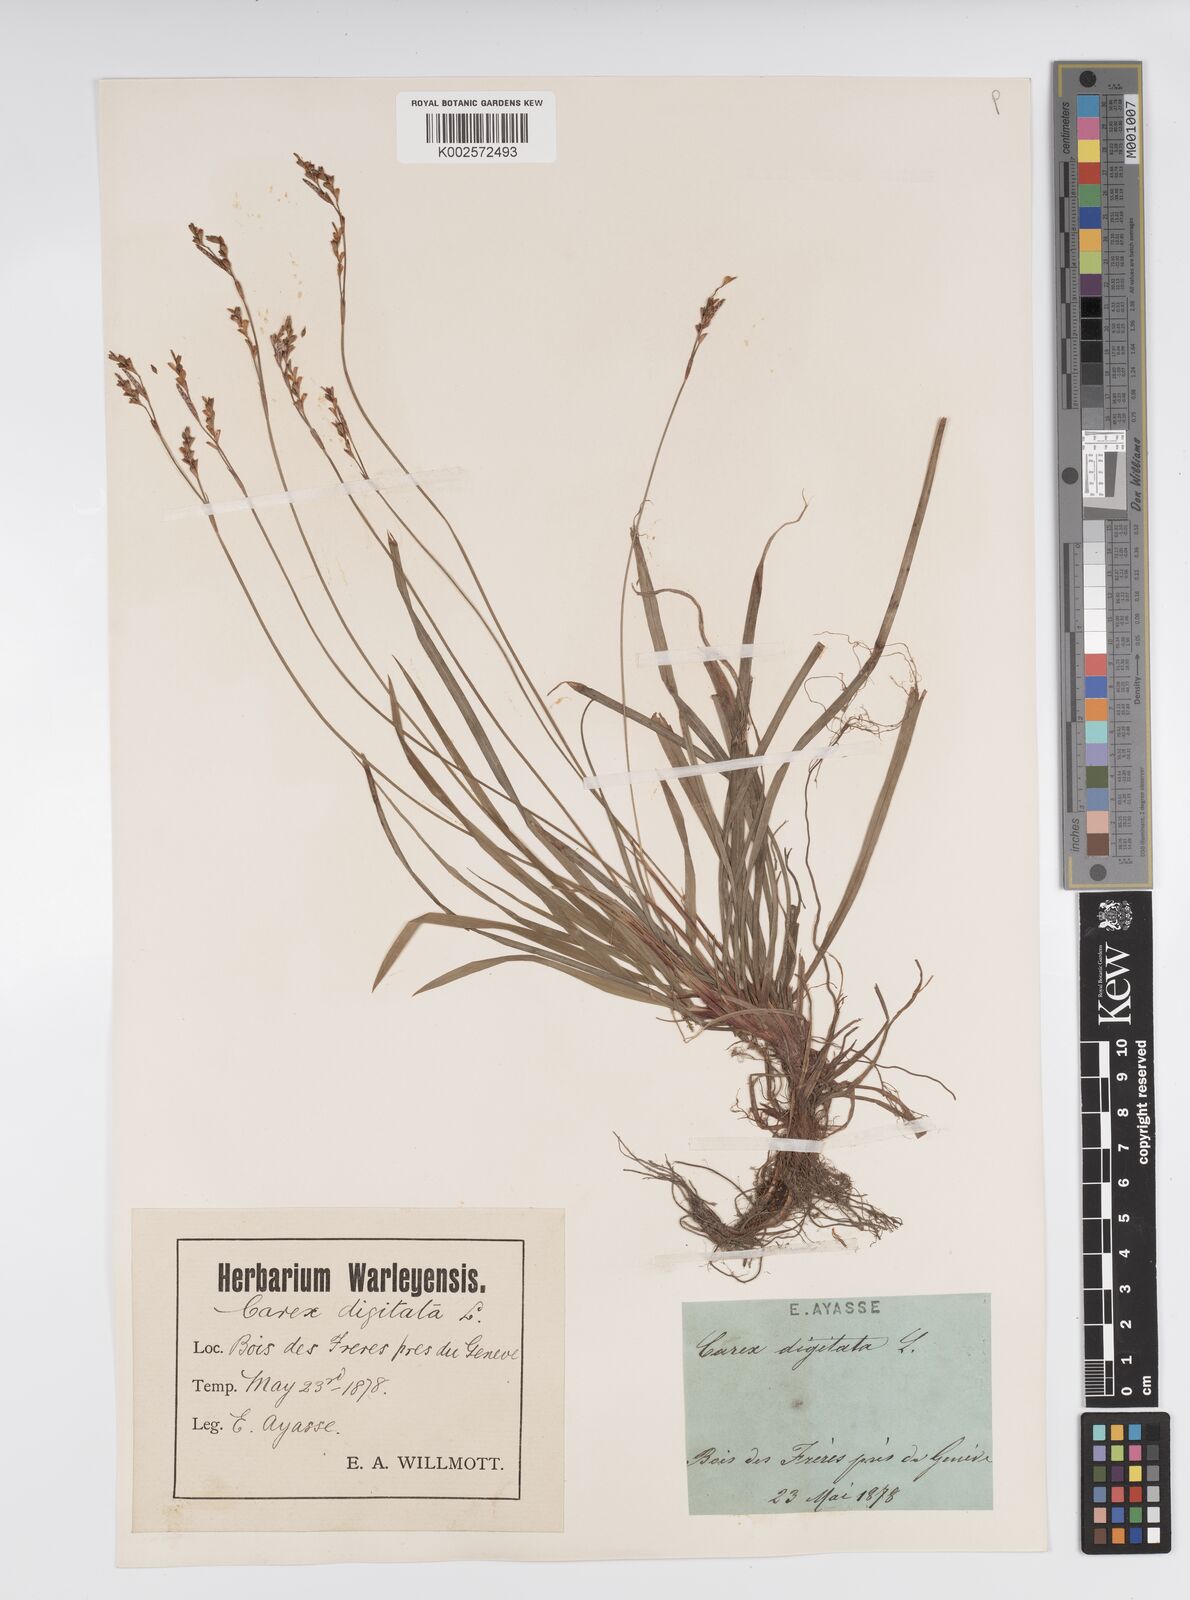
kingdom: Plantae
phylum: Tracheophyta
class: Liliopsida
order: Poales
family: Cyperaceae
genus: Carex
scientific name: Carex digitata
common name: Fingered sedge
